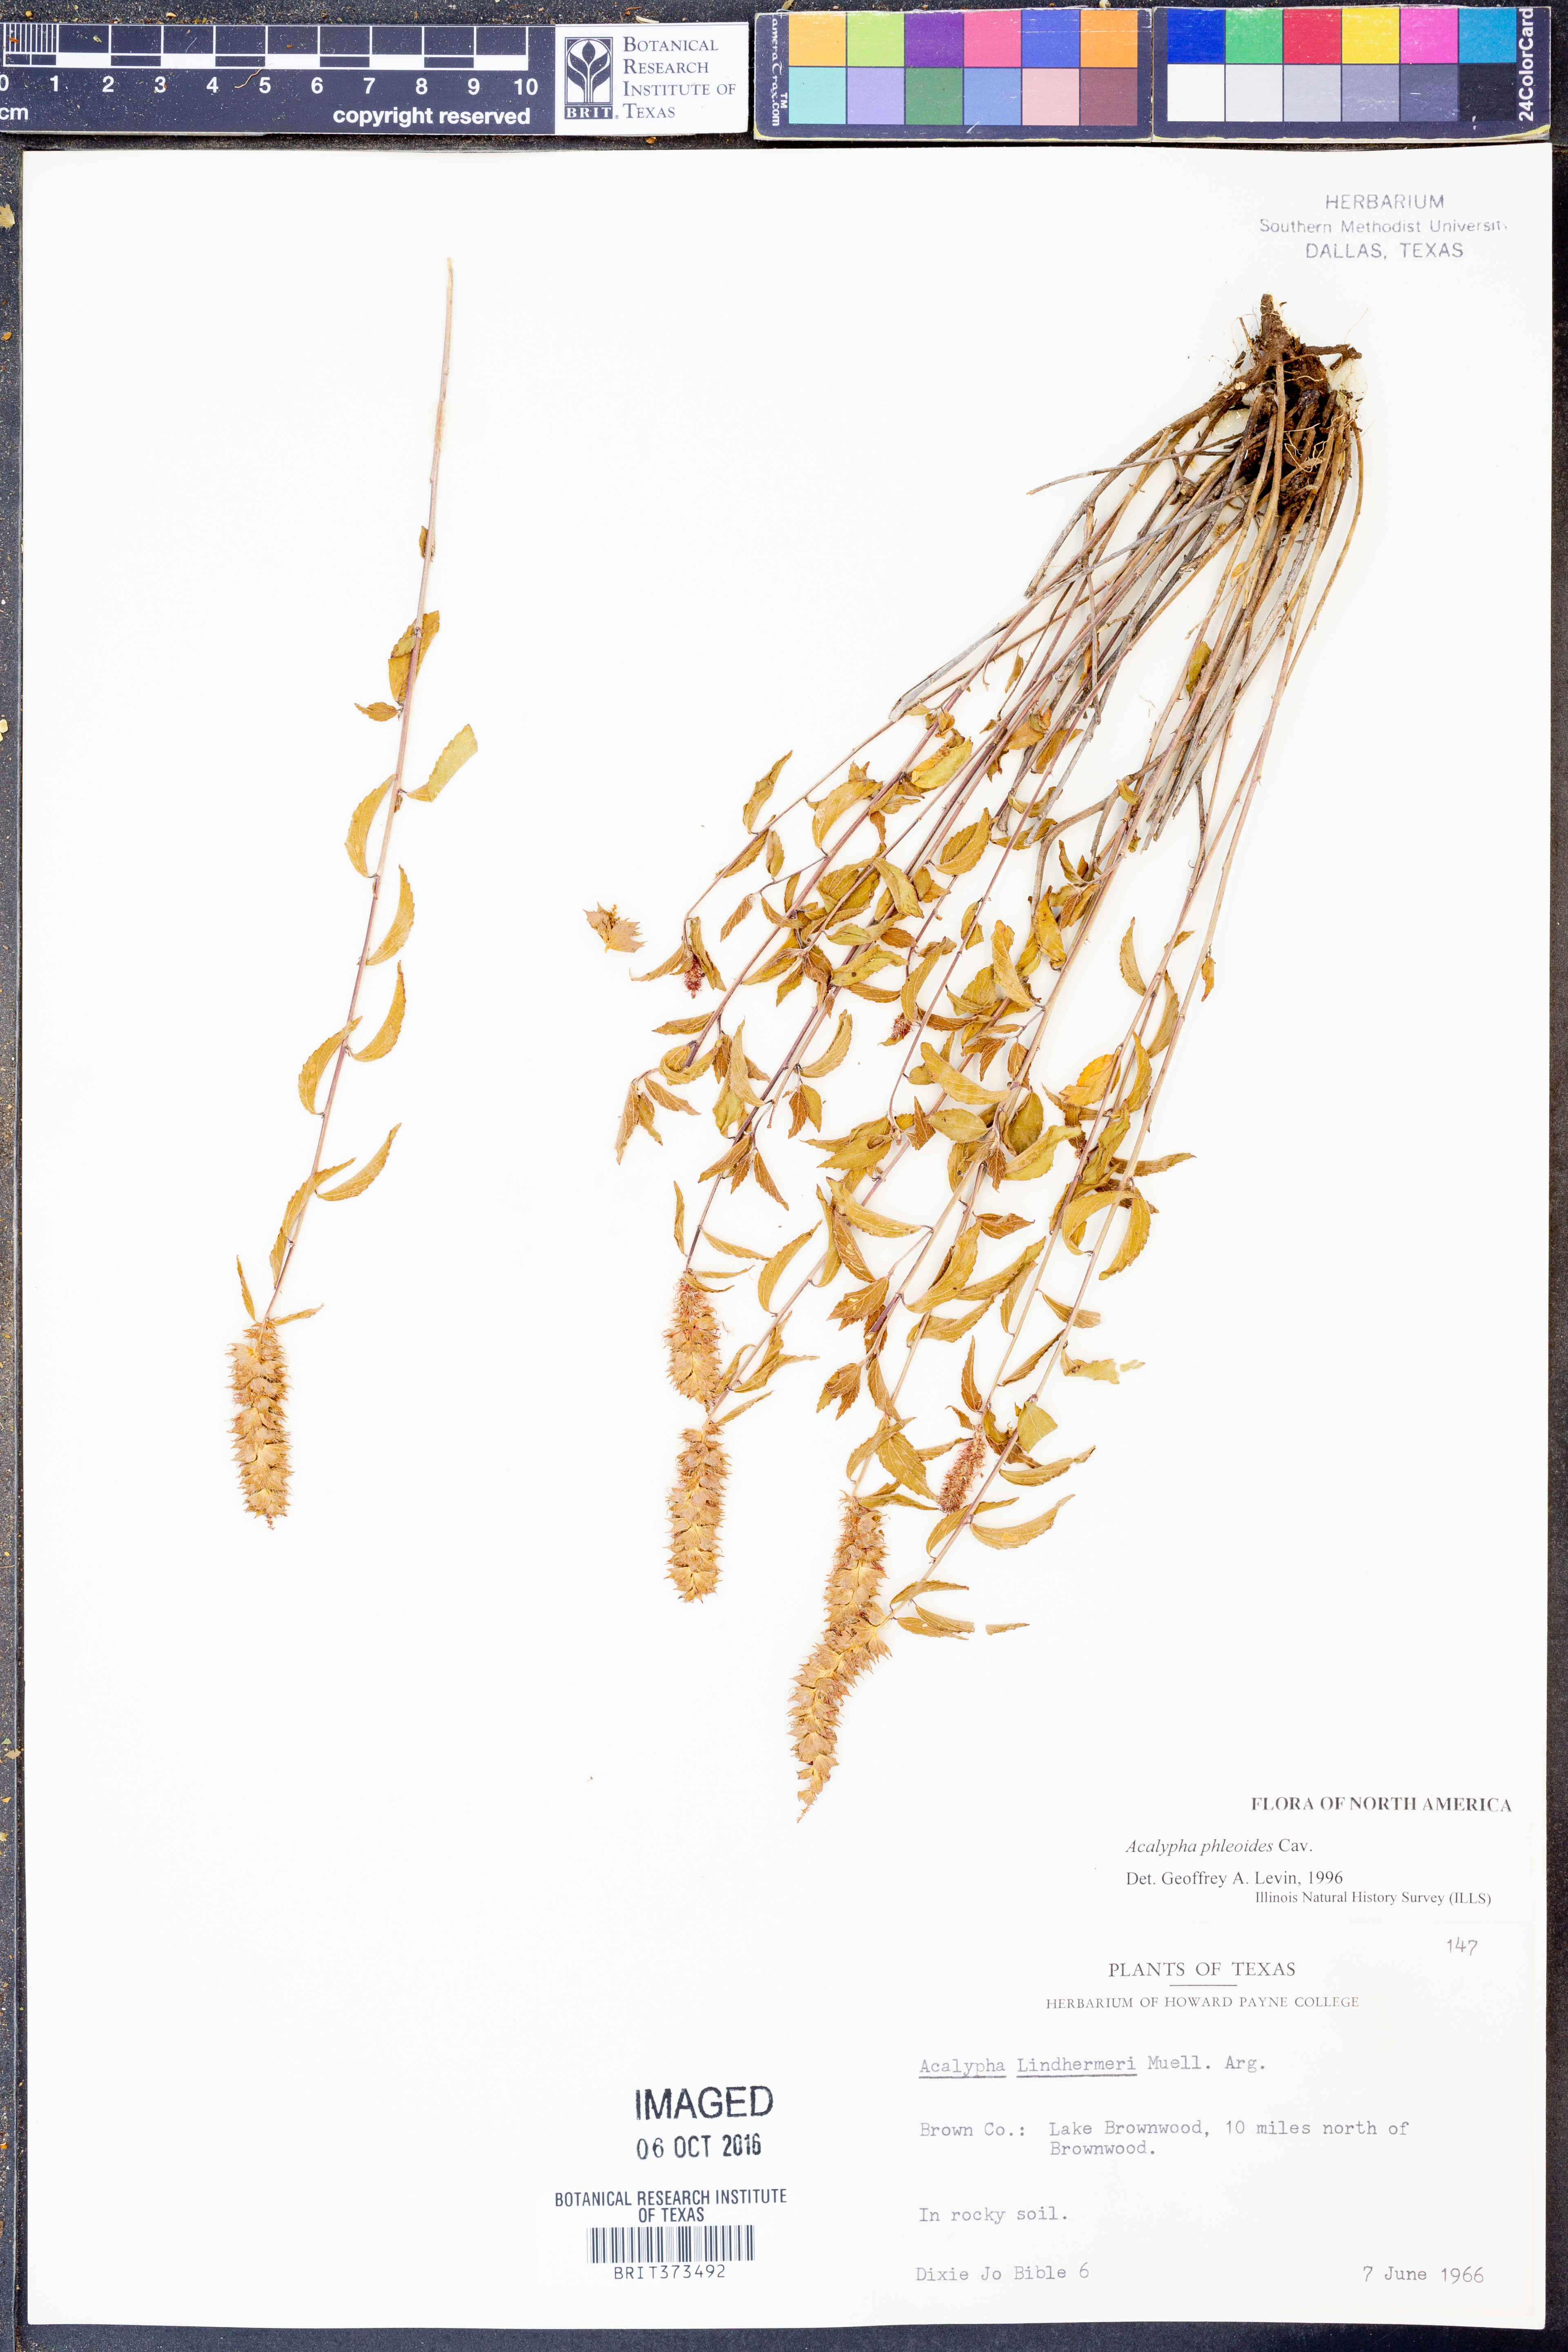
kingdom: Plantae
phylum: Tracheophyta
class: Magnoliopsida
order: Malpighiales
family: Euphorbiaceae
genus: Acalypha
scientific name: Acalypha phleoides
